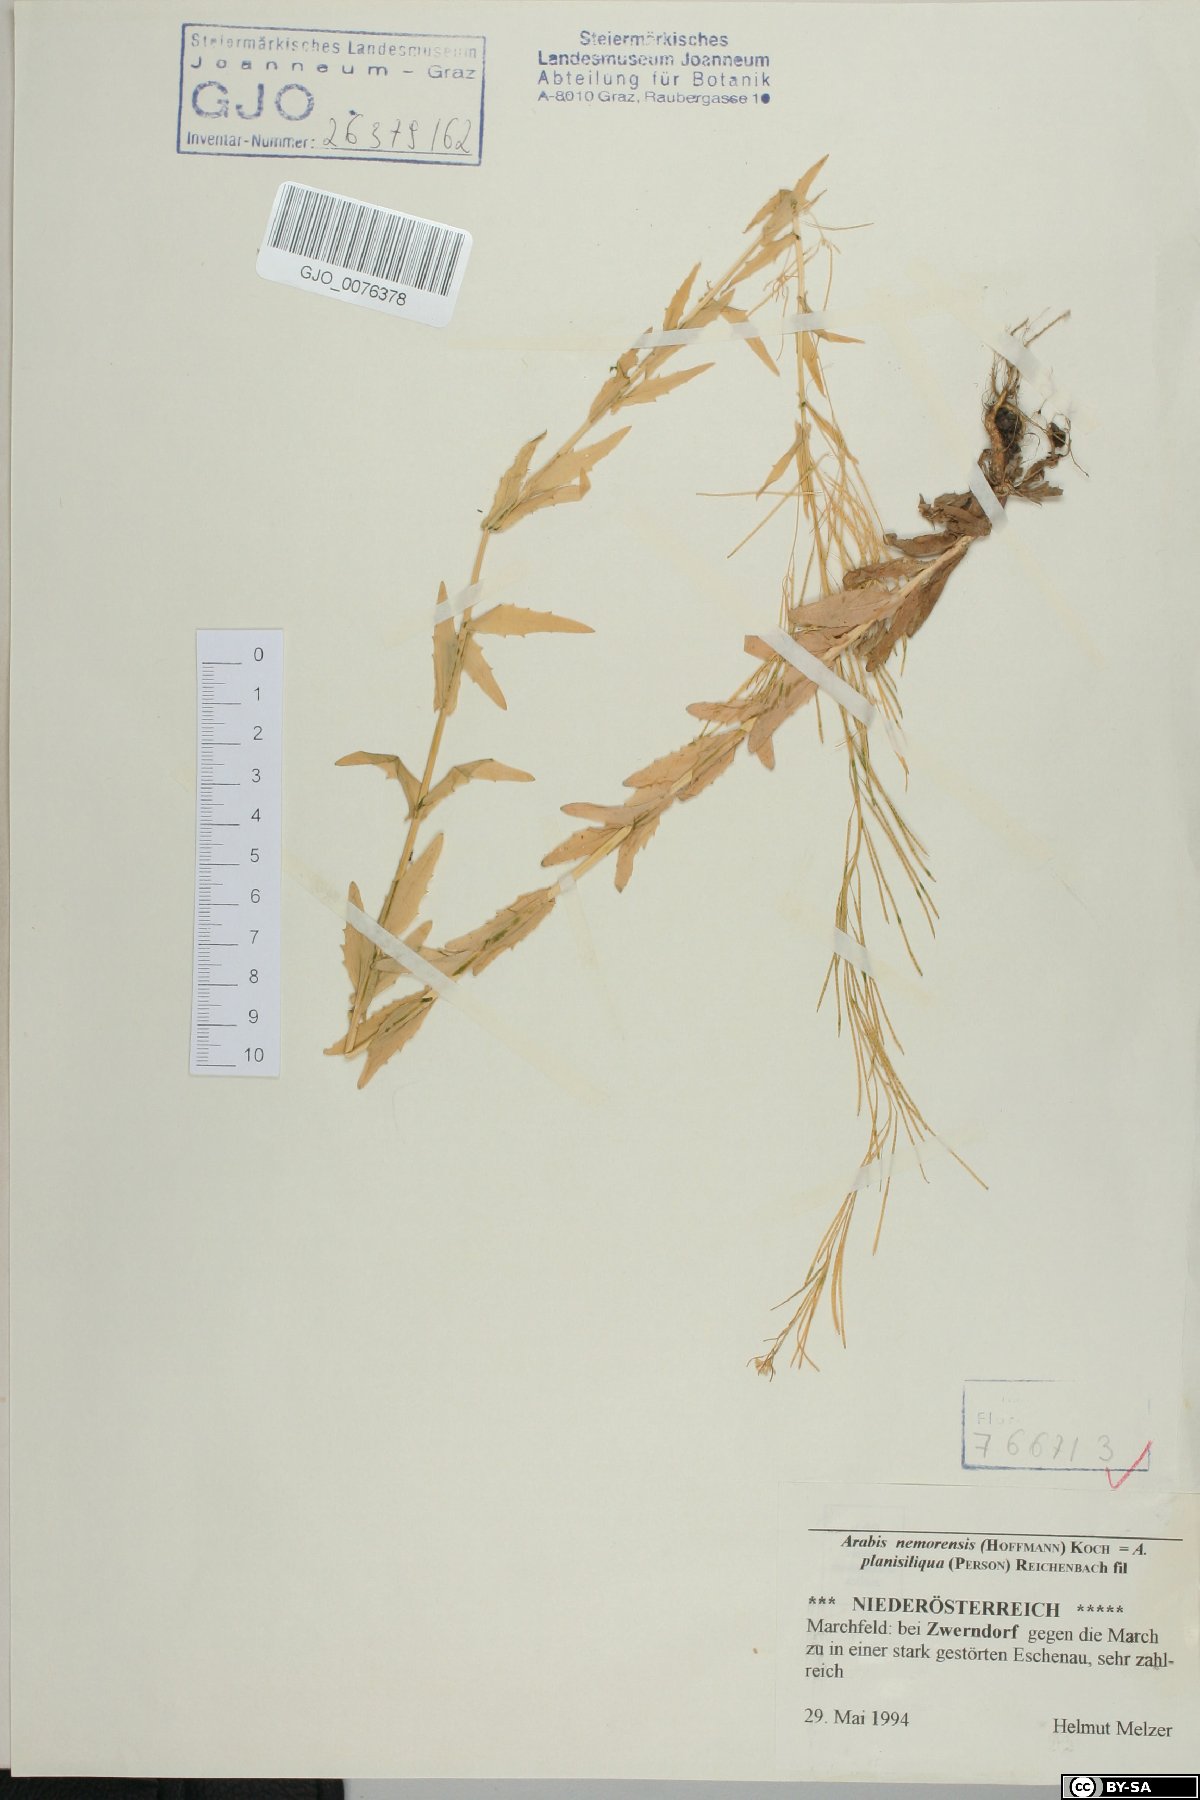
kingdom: Plantae
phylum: Tracheophyta
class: Magnoliopsida
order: Brassicales
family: Brassicaceae
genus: Arabis
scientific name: Arabis planisiliqua
